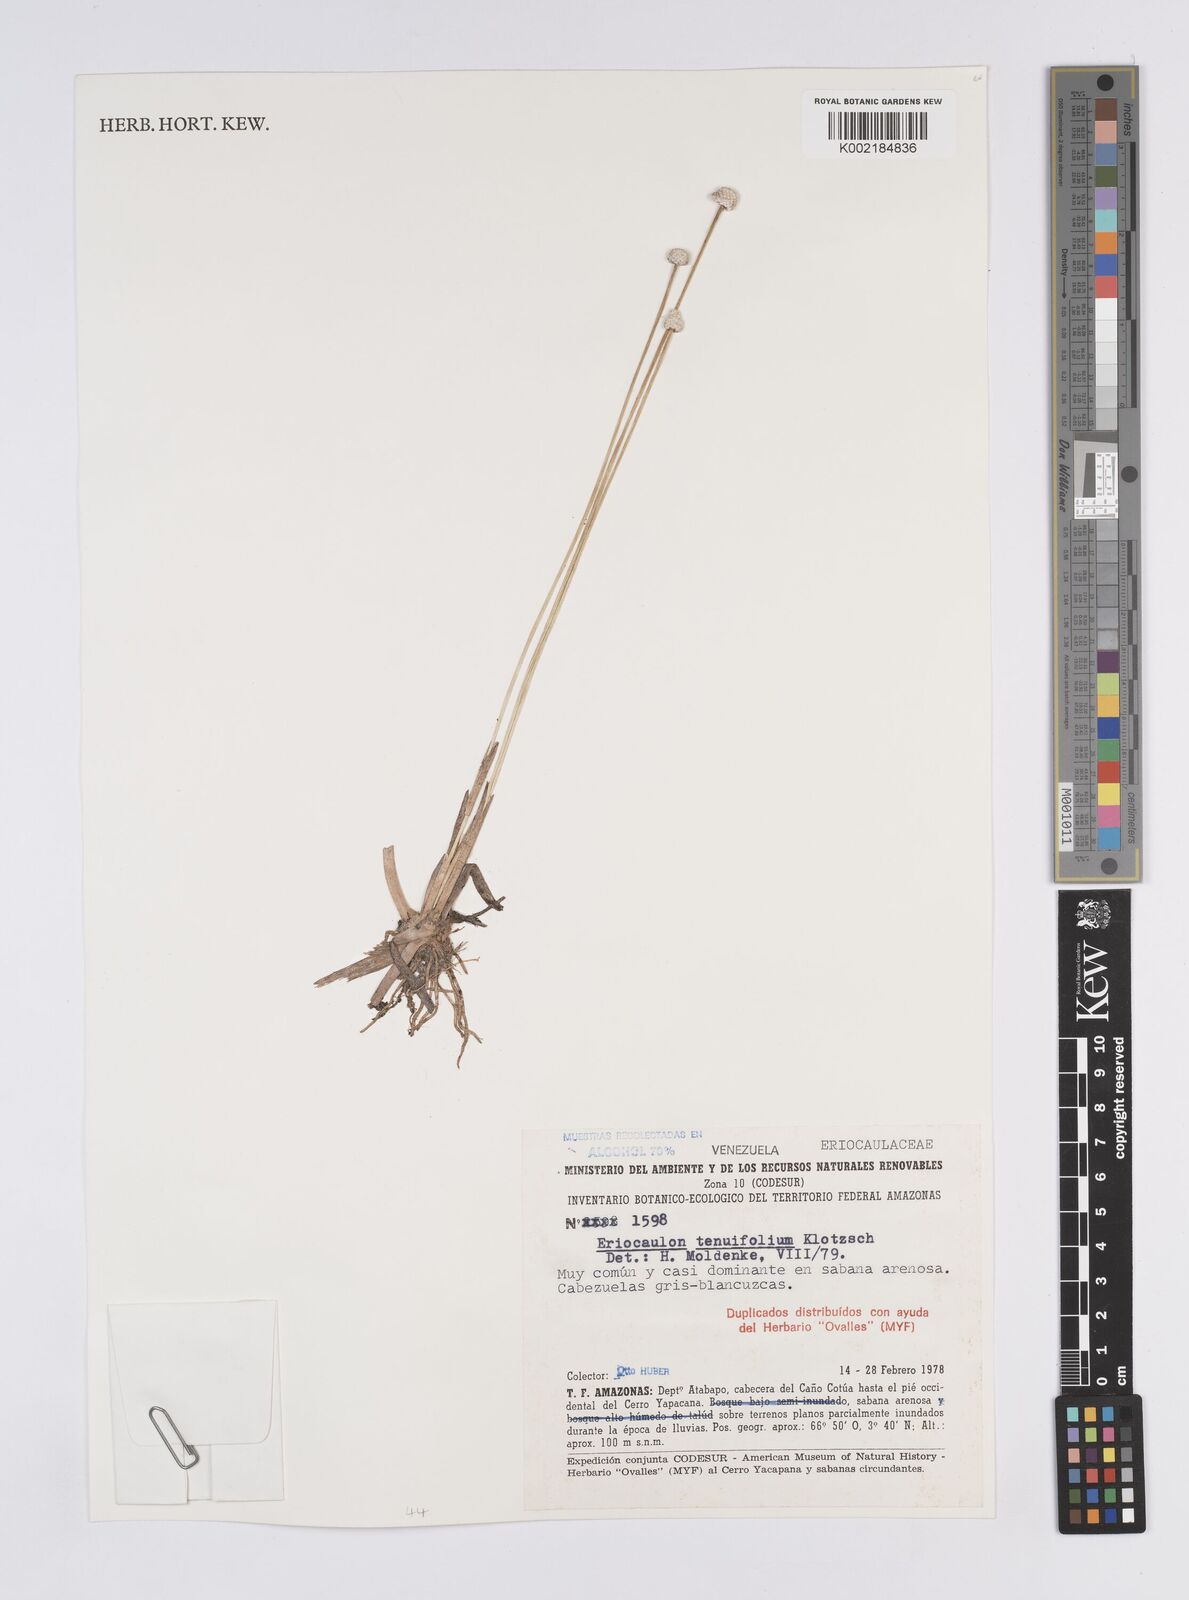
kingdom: Plantae
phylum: Tracheophyta
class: Liliopsida
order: Poales
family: Eriocaulaceae
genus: Eriocaulon
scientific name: Eriocaulon tenuifolium
